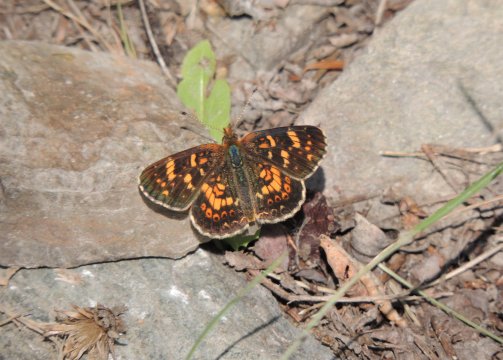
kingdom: Animalia
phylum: Arthropoda
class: Insecta
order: Lepidoptera
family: Nymphalidae
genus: Phyciodes
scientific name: Phyciodes tharos
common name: Field Crescent
